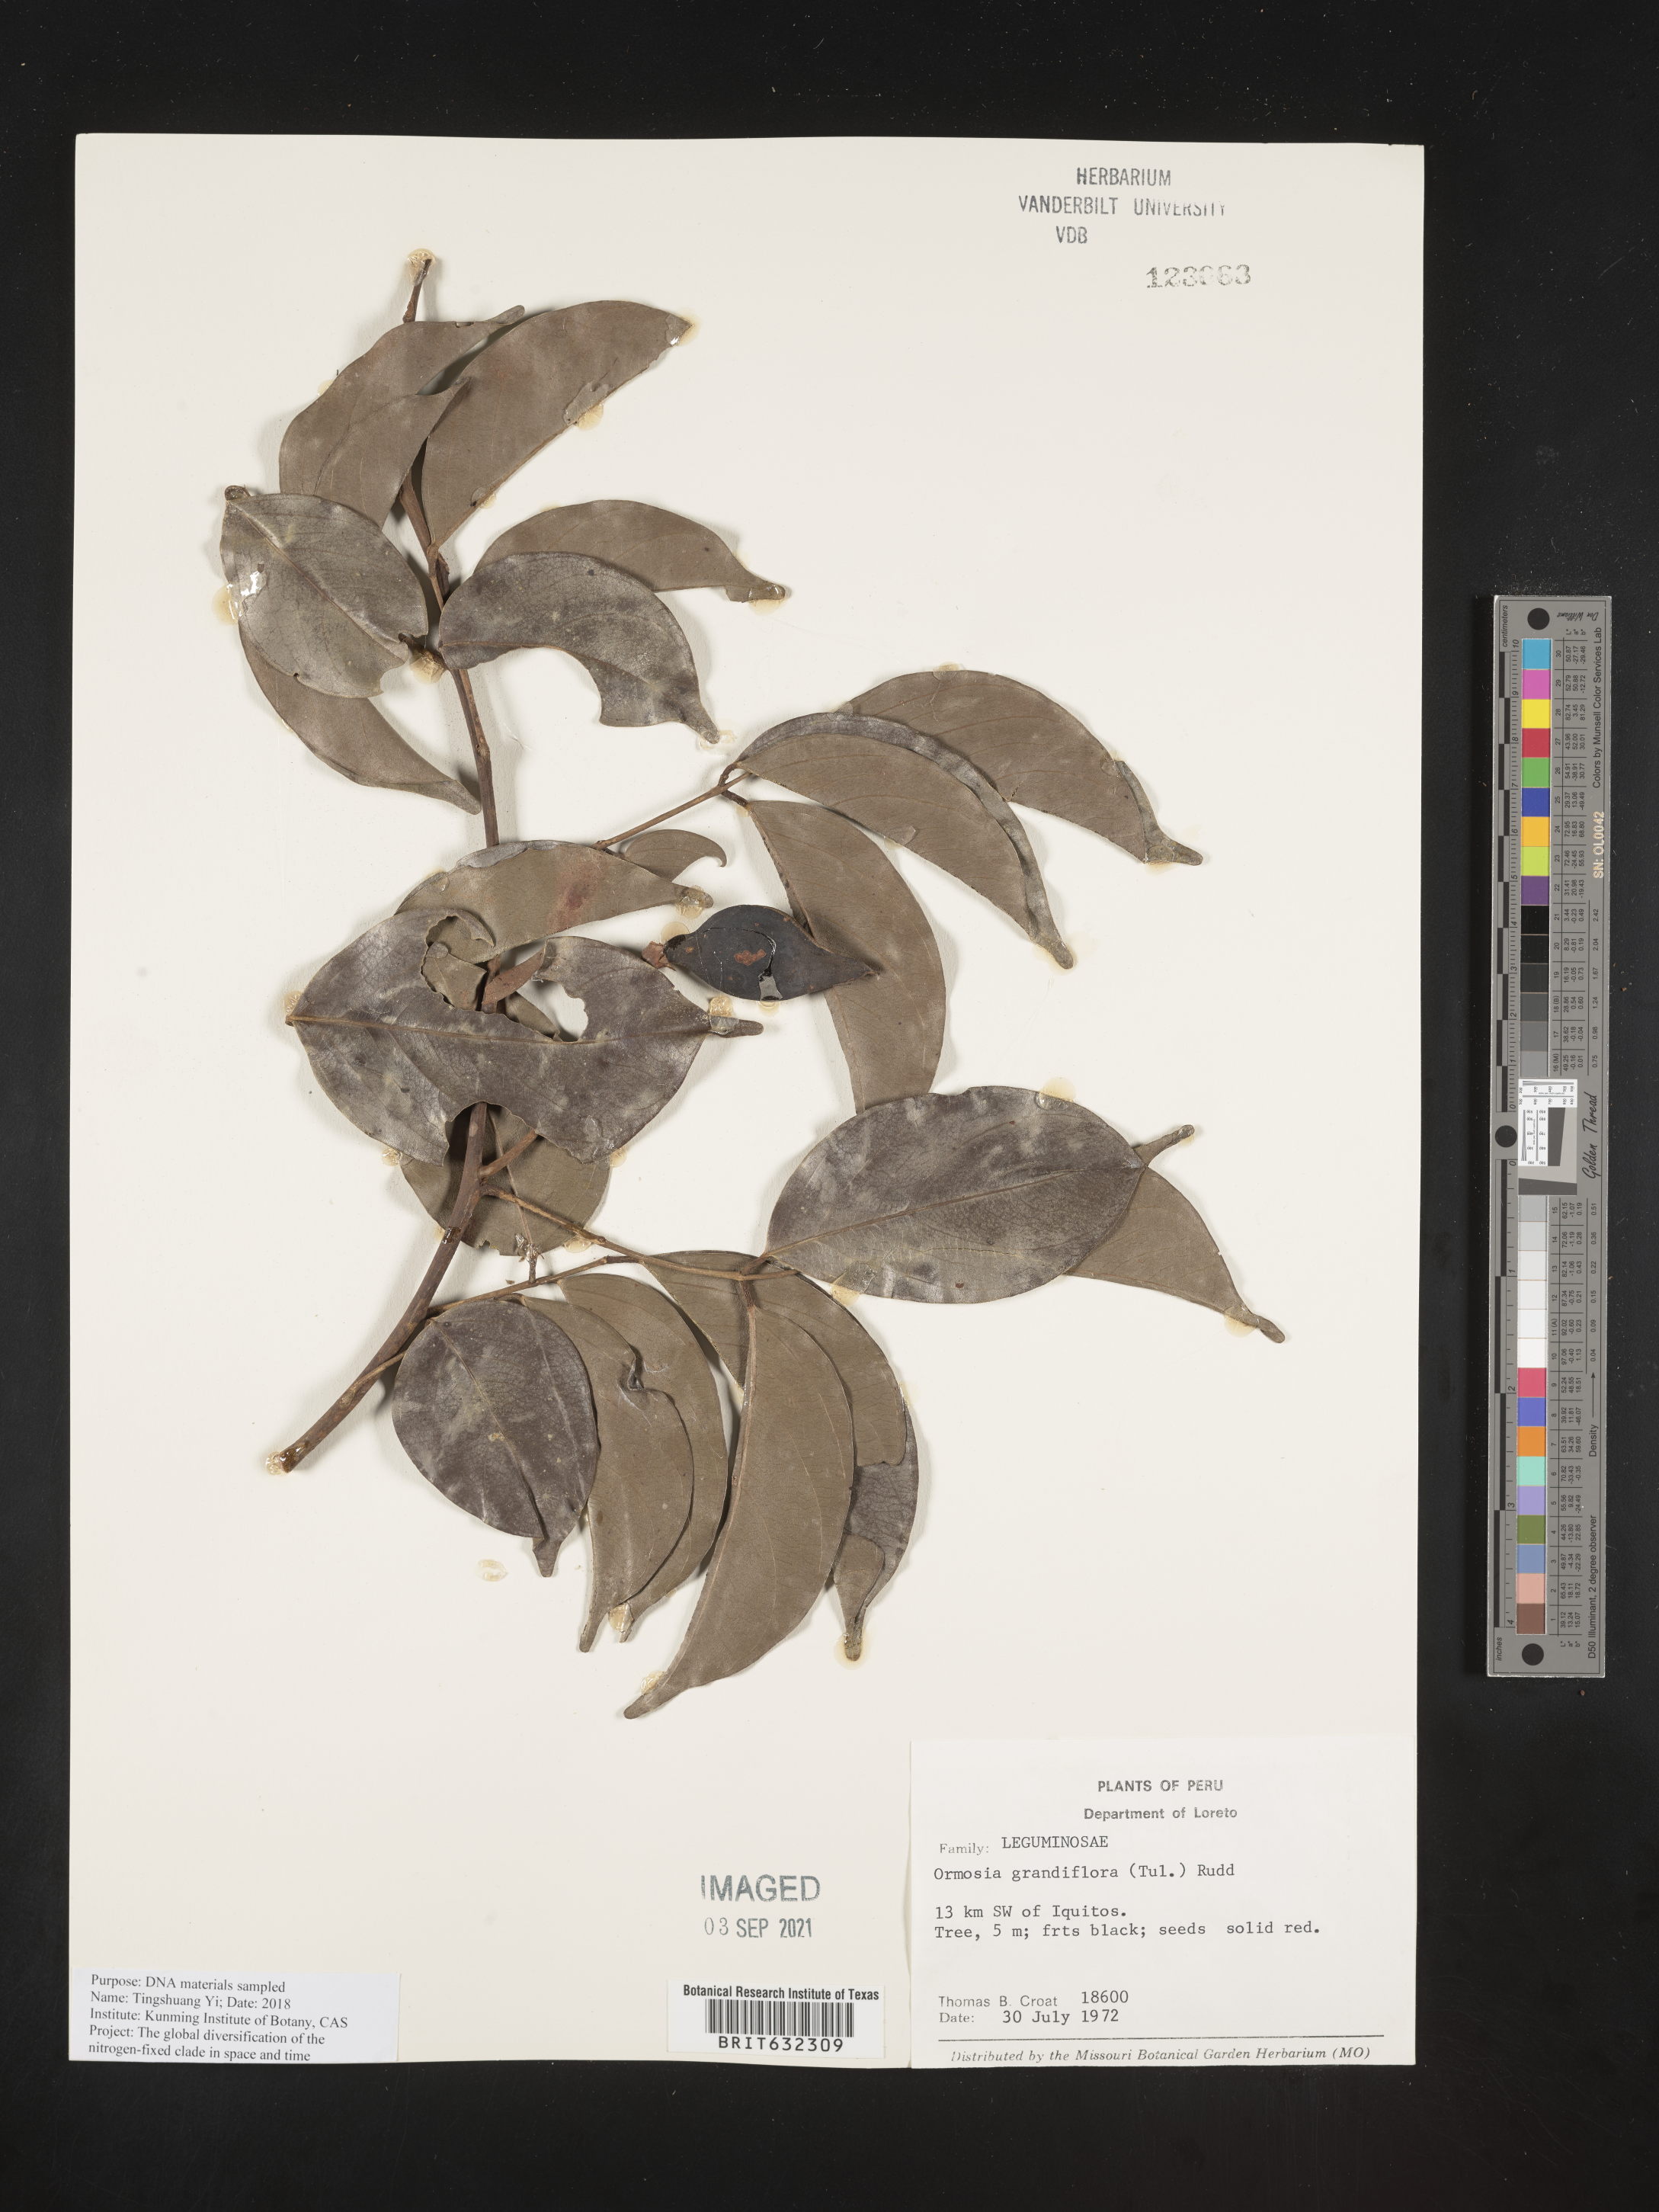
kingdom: Plantae
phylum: Tracheophyta
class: Magnoliopsida
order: Fabales
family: Fabaceae
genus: Ormosia
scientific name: Ormosia
